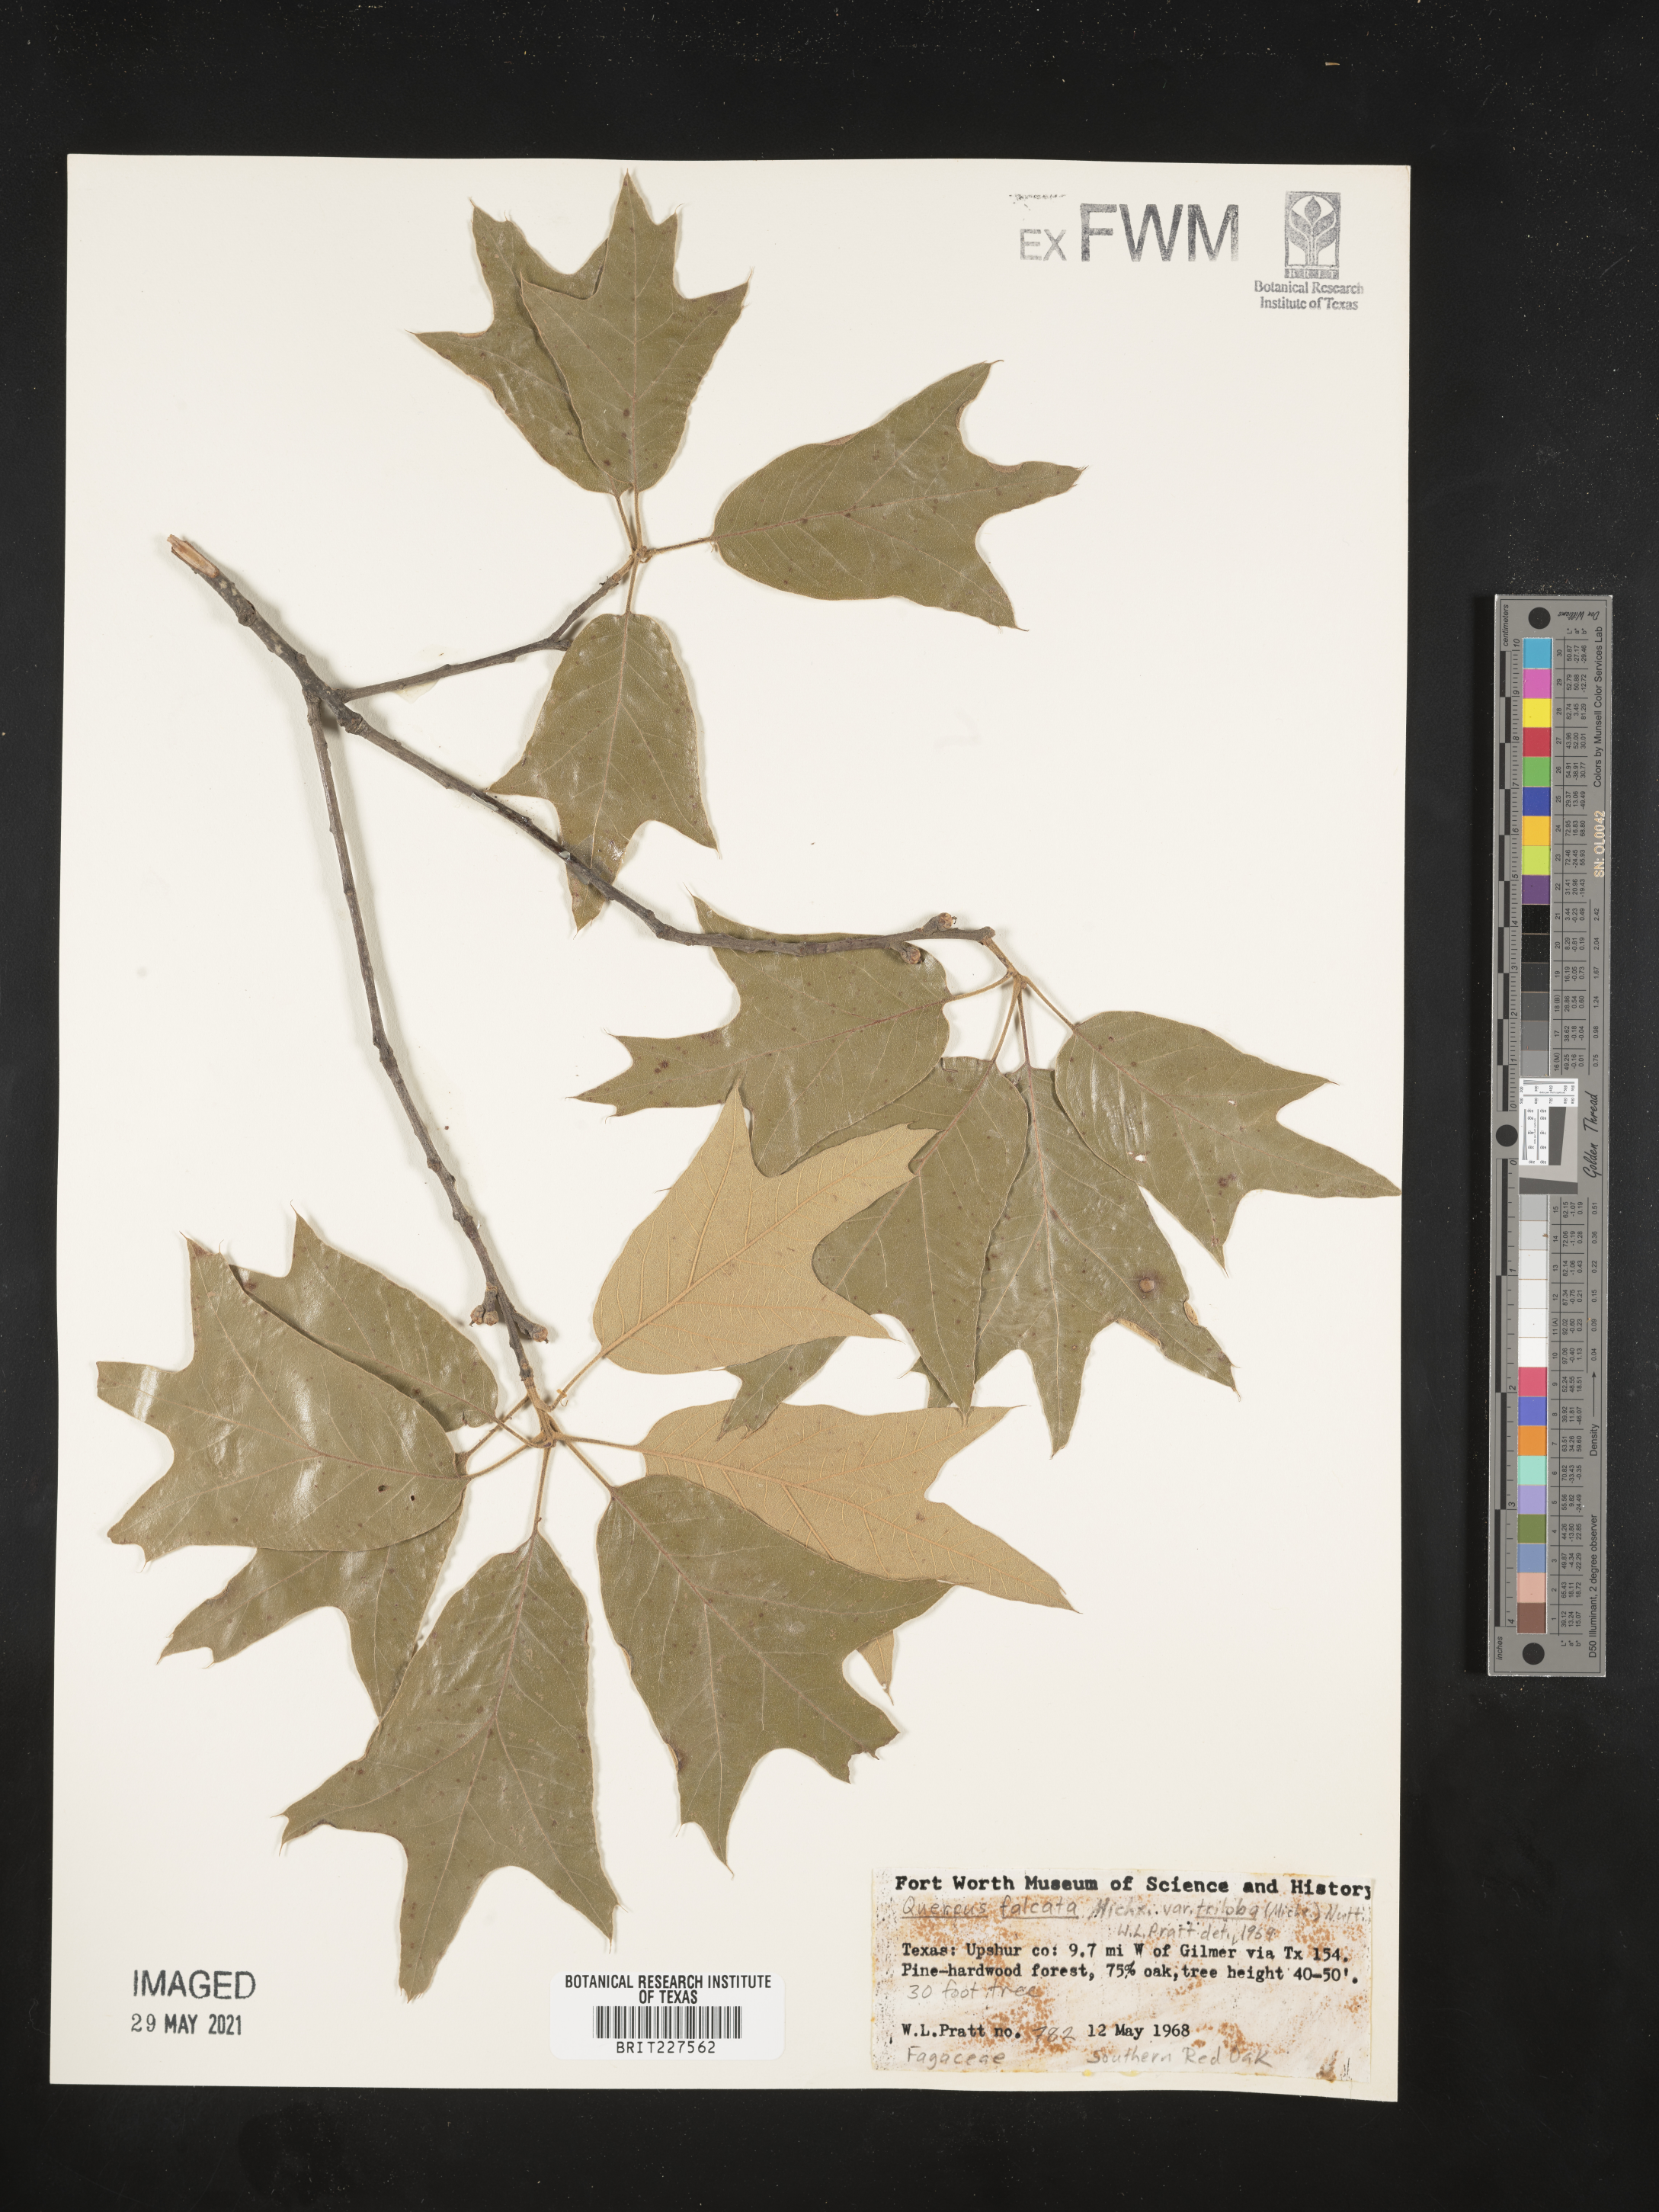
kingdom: Plantae
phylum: Tracheophyta
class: Magnoliopsida
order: Fagales
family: Fagaceae
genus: Quercus
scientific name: Quercus falcata
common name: Southern red oak
